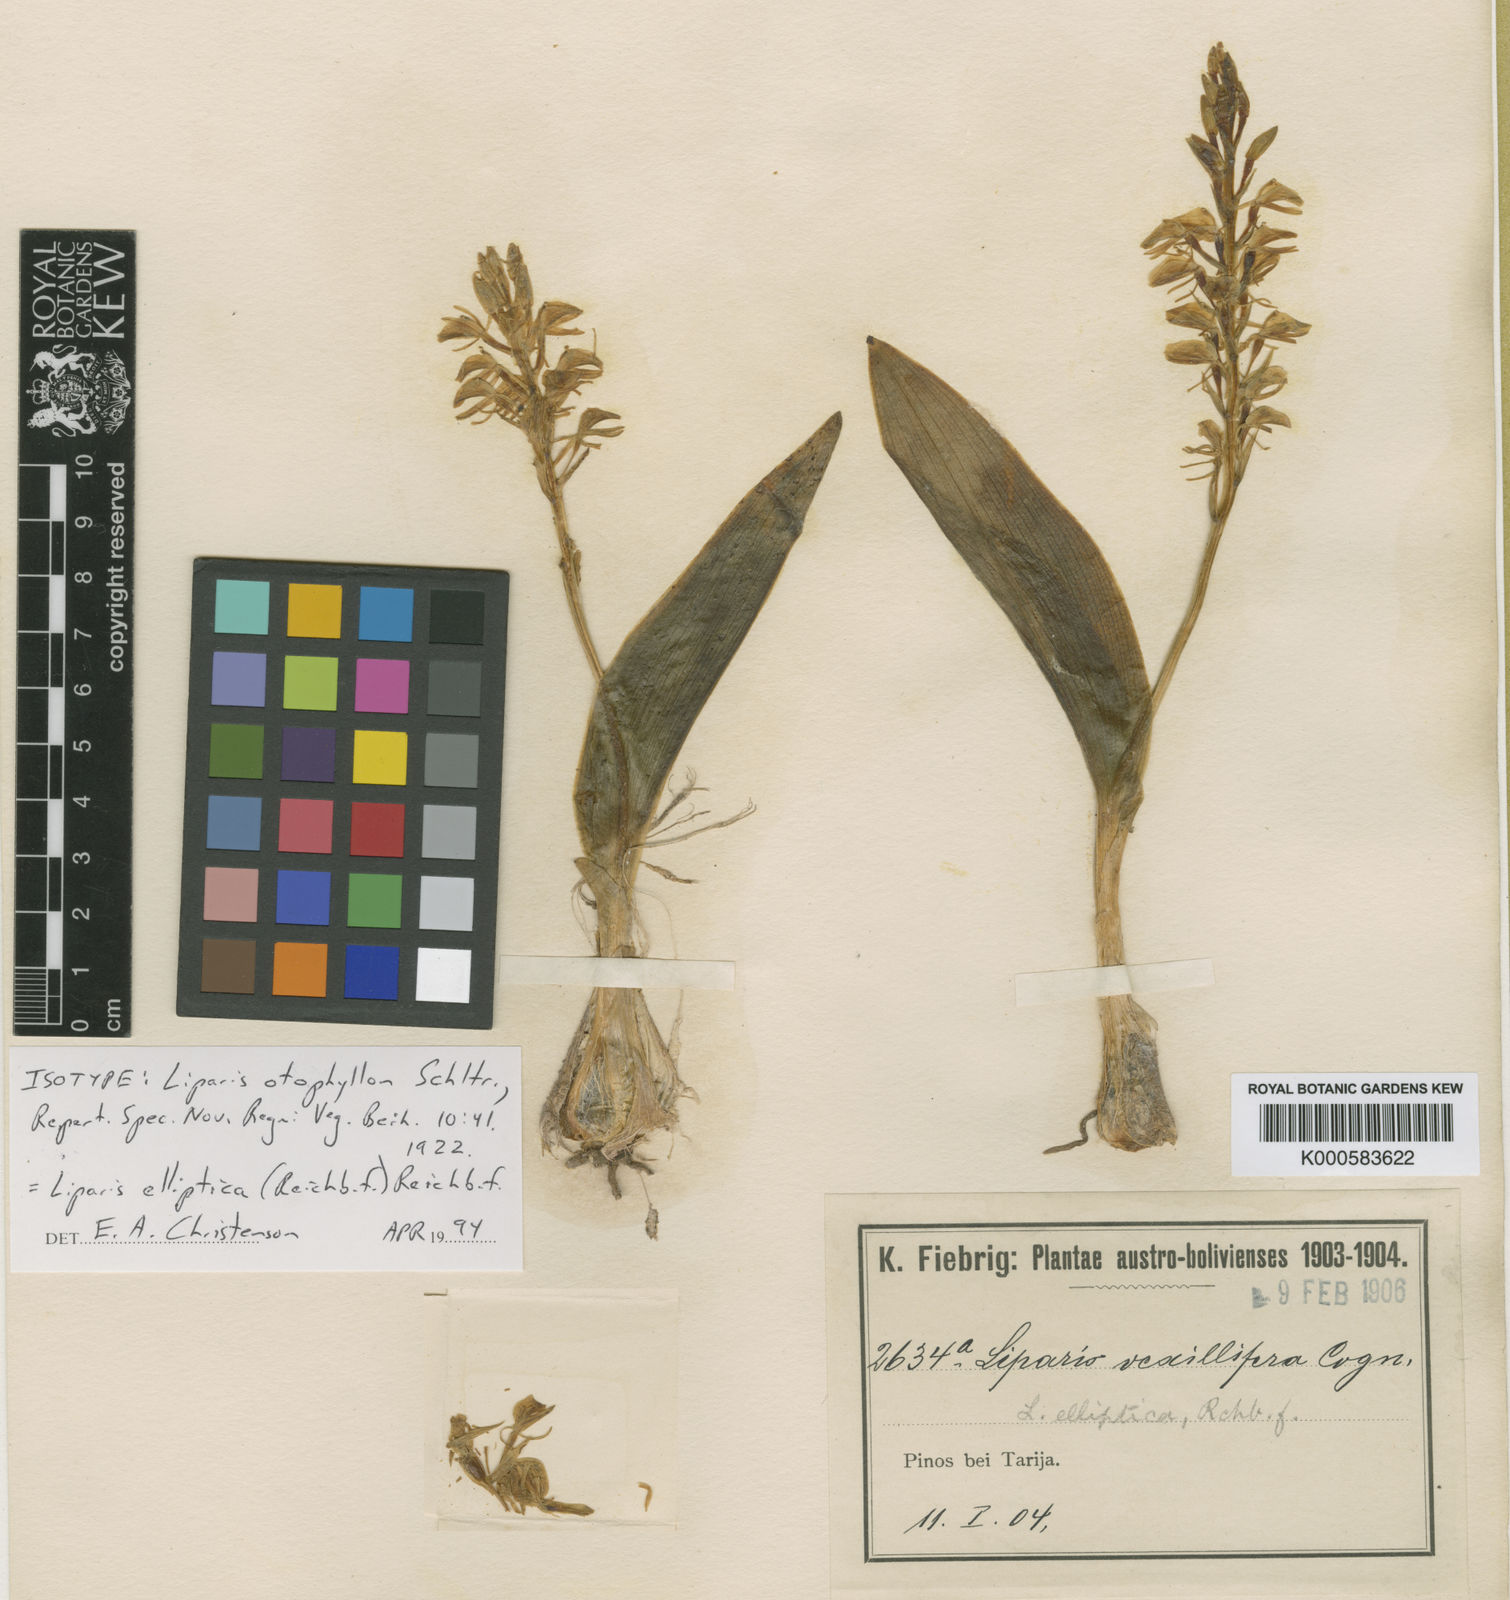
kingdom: Plantae
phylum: Tracheophyta
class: Liliopsida
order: Asparagales
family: Orchidaceae
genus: Liparis
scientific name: Liparis jamaicensis
